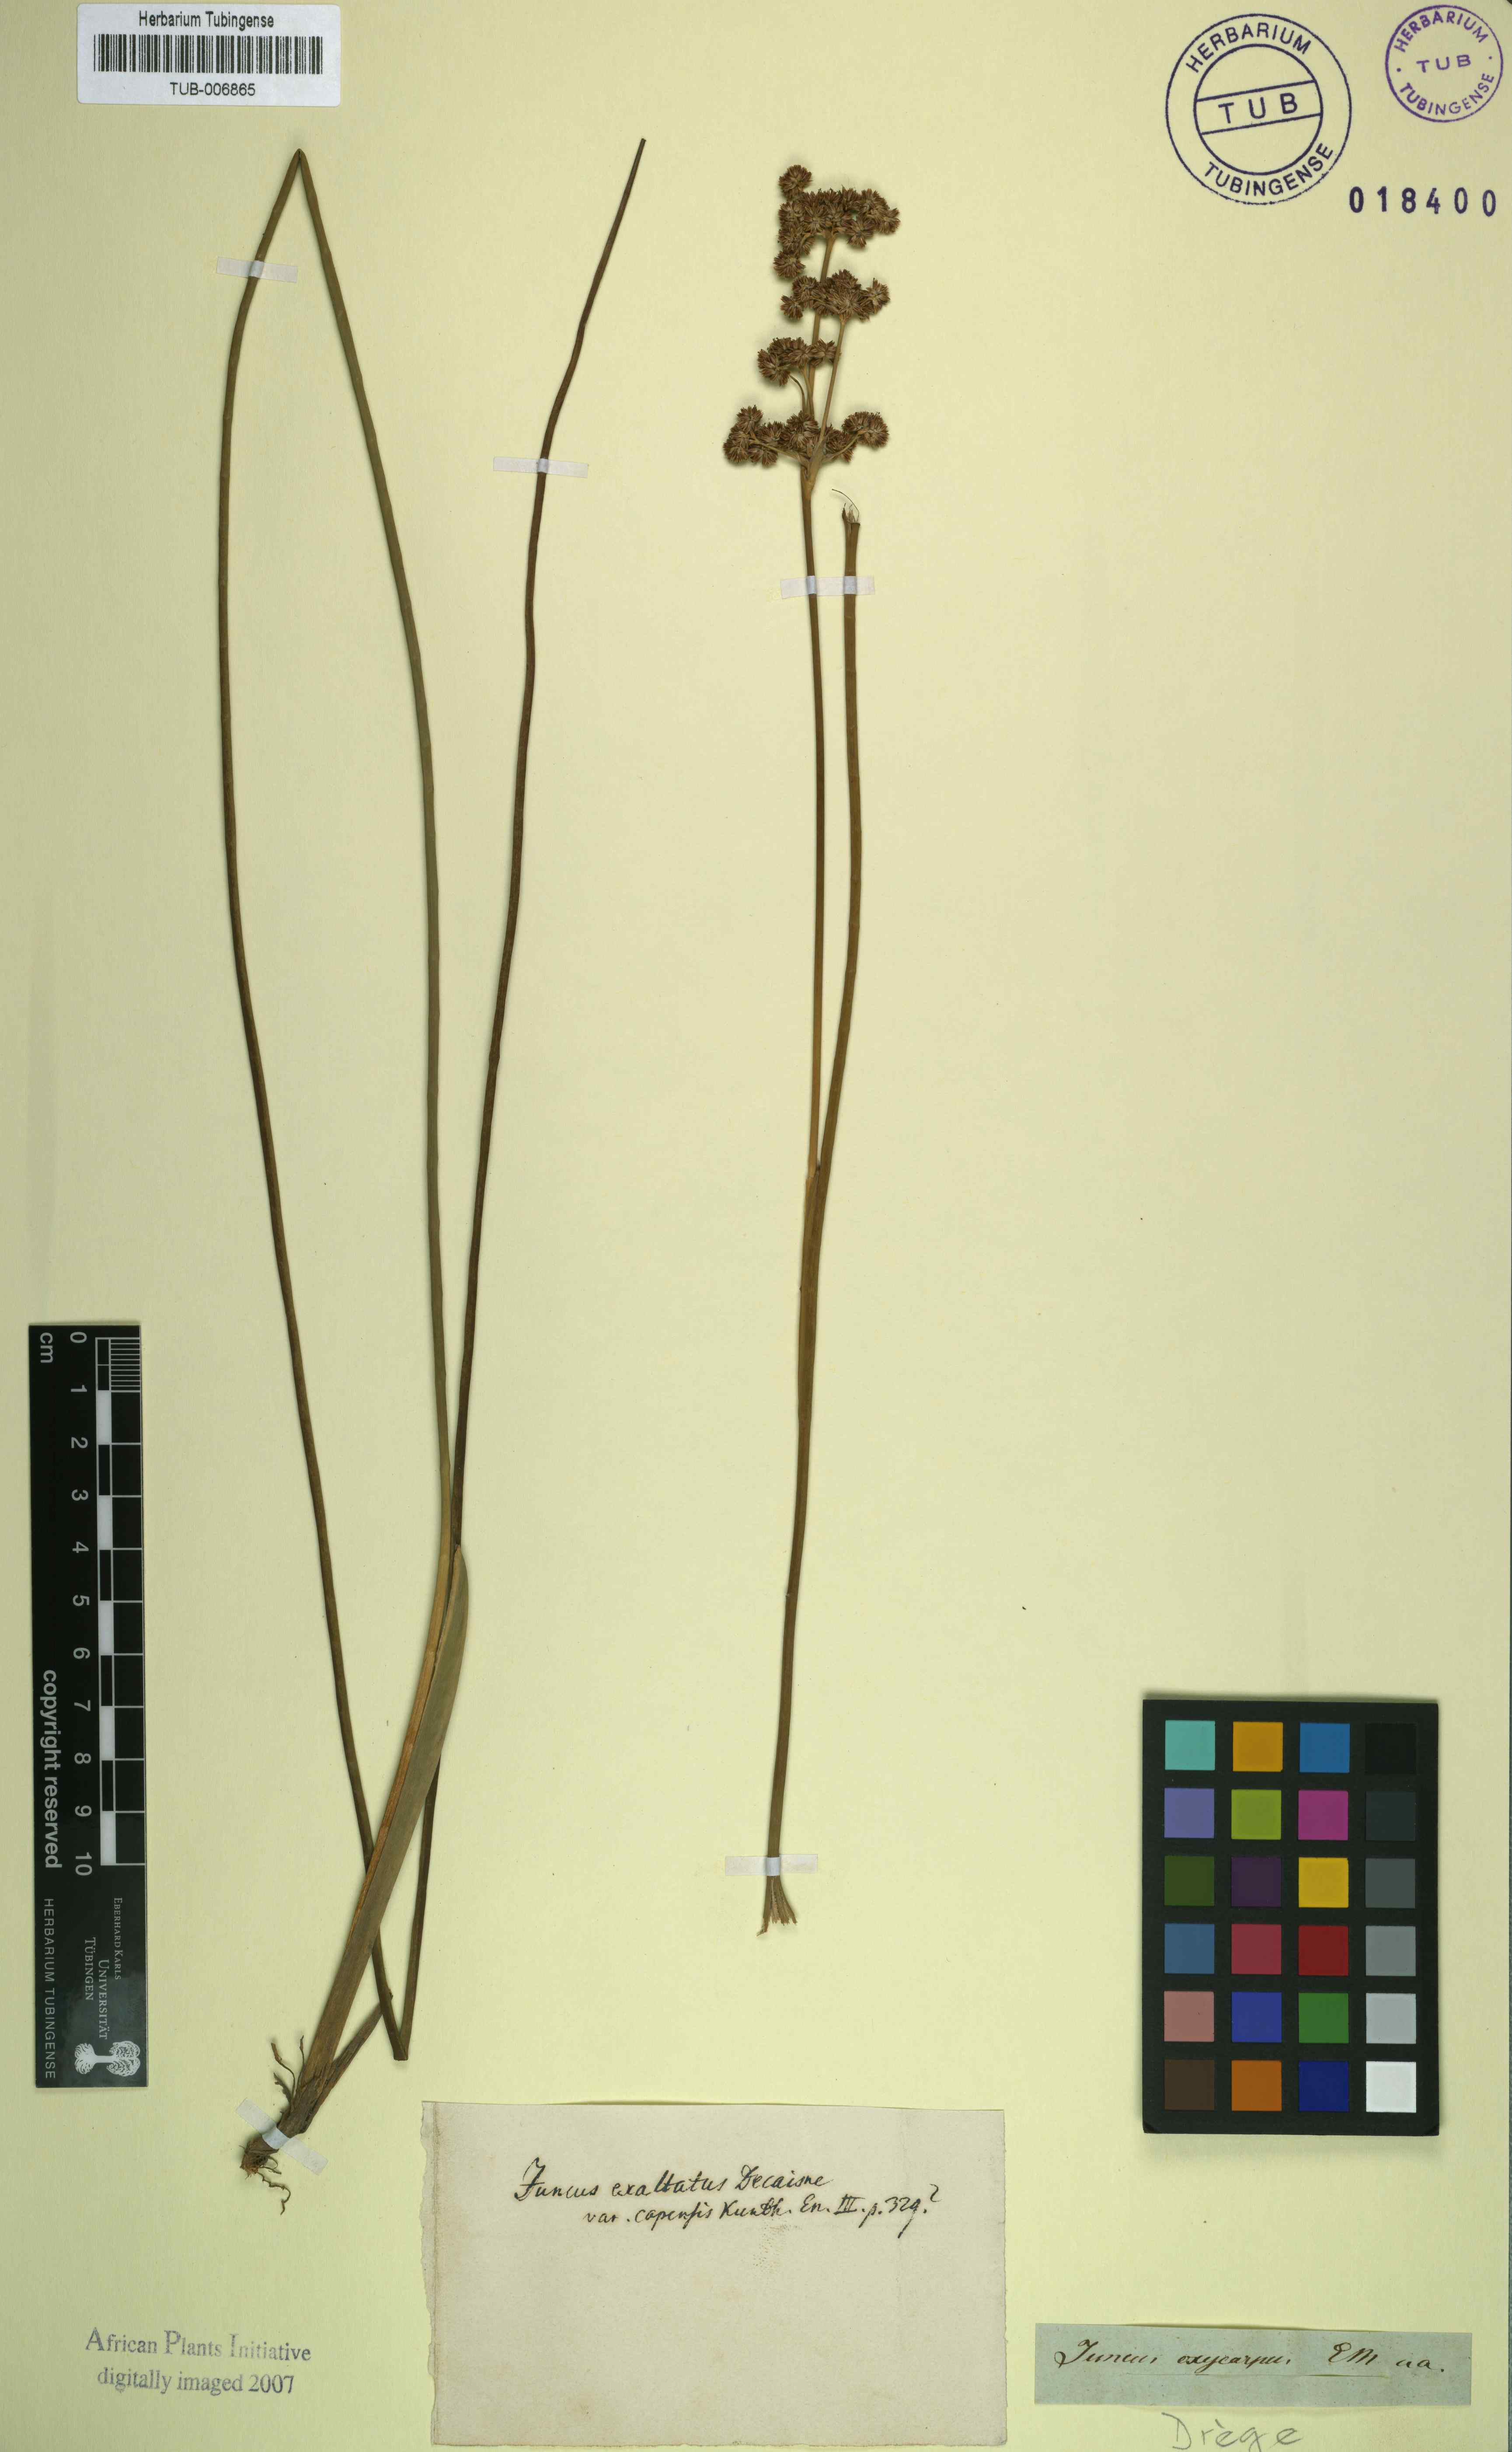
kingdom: Plantae
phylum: Tracheophyta
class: Liliopsida
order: Poales
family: Juncaceae
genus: Juncus
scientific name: Juncus punctorius
